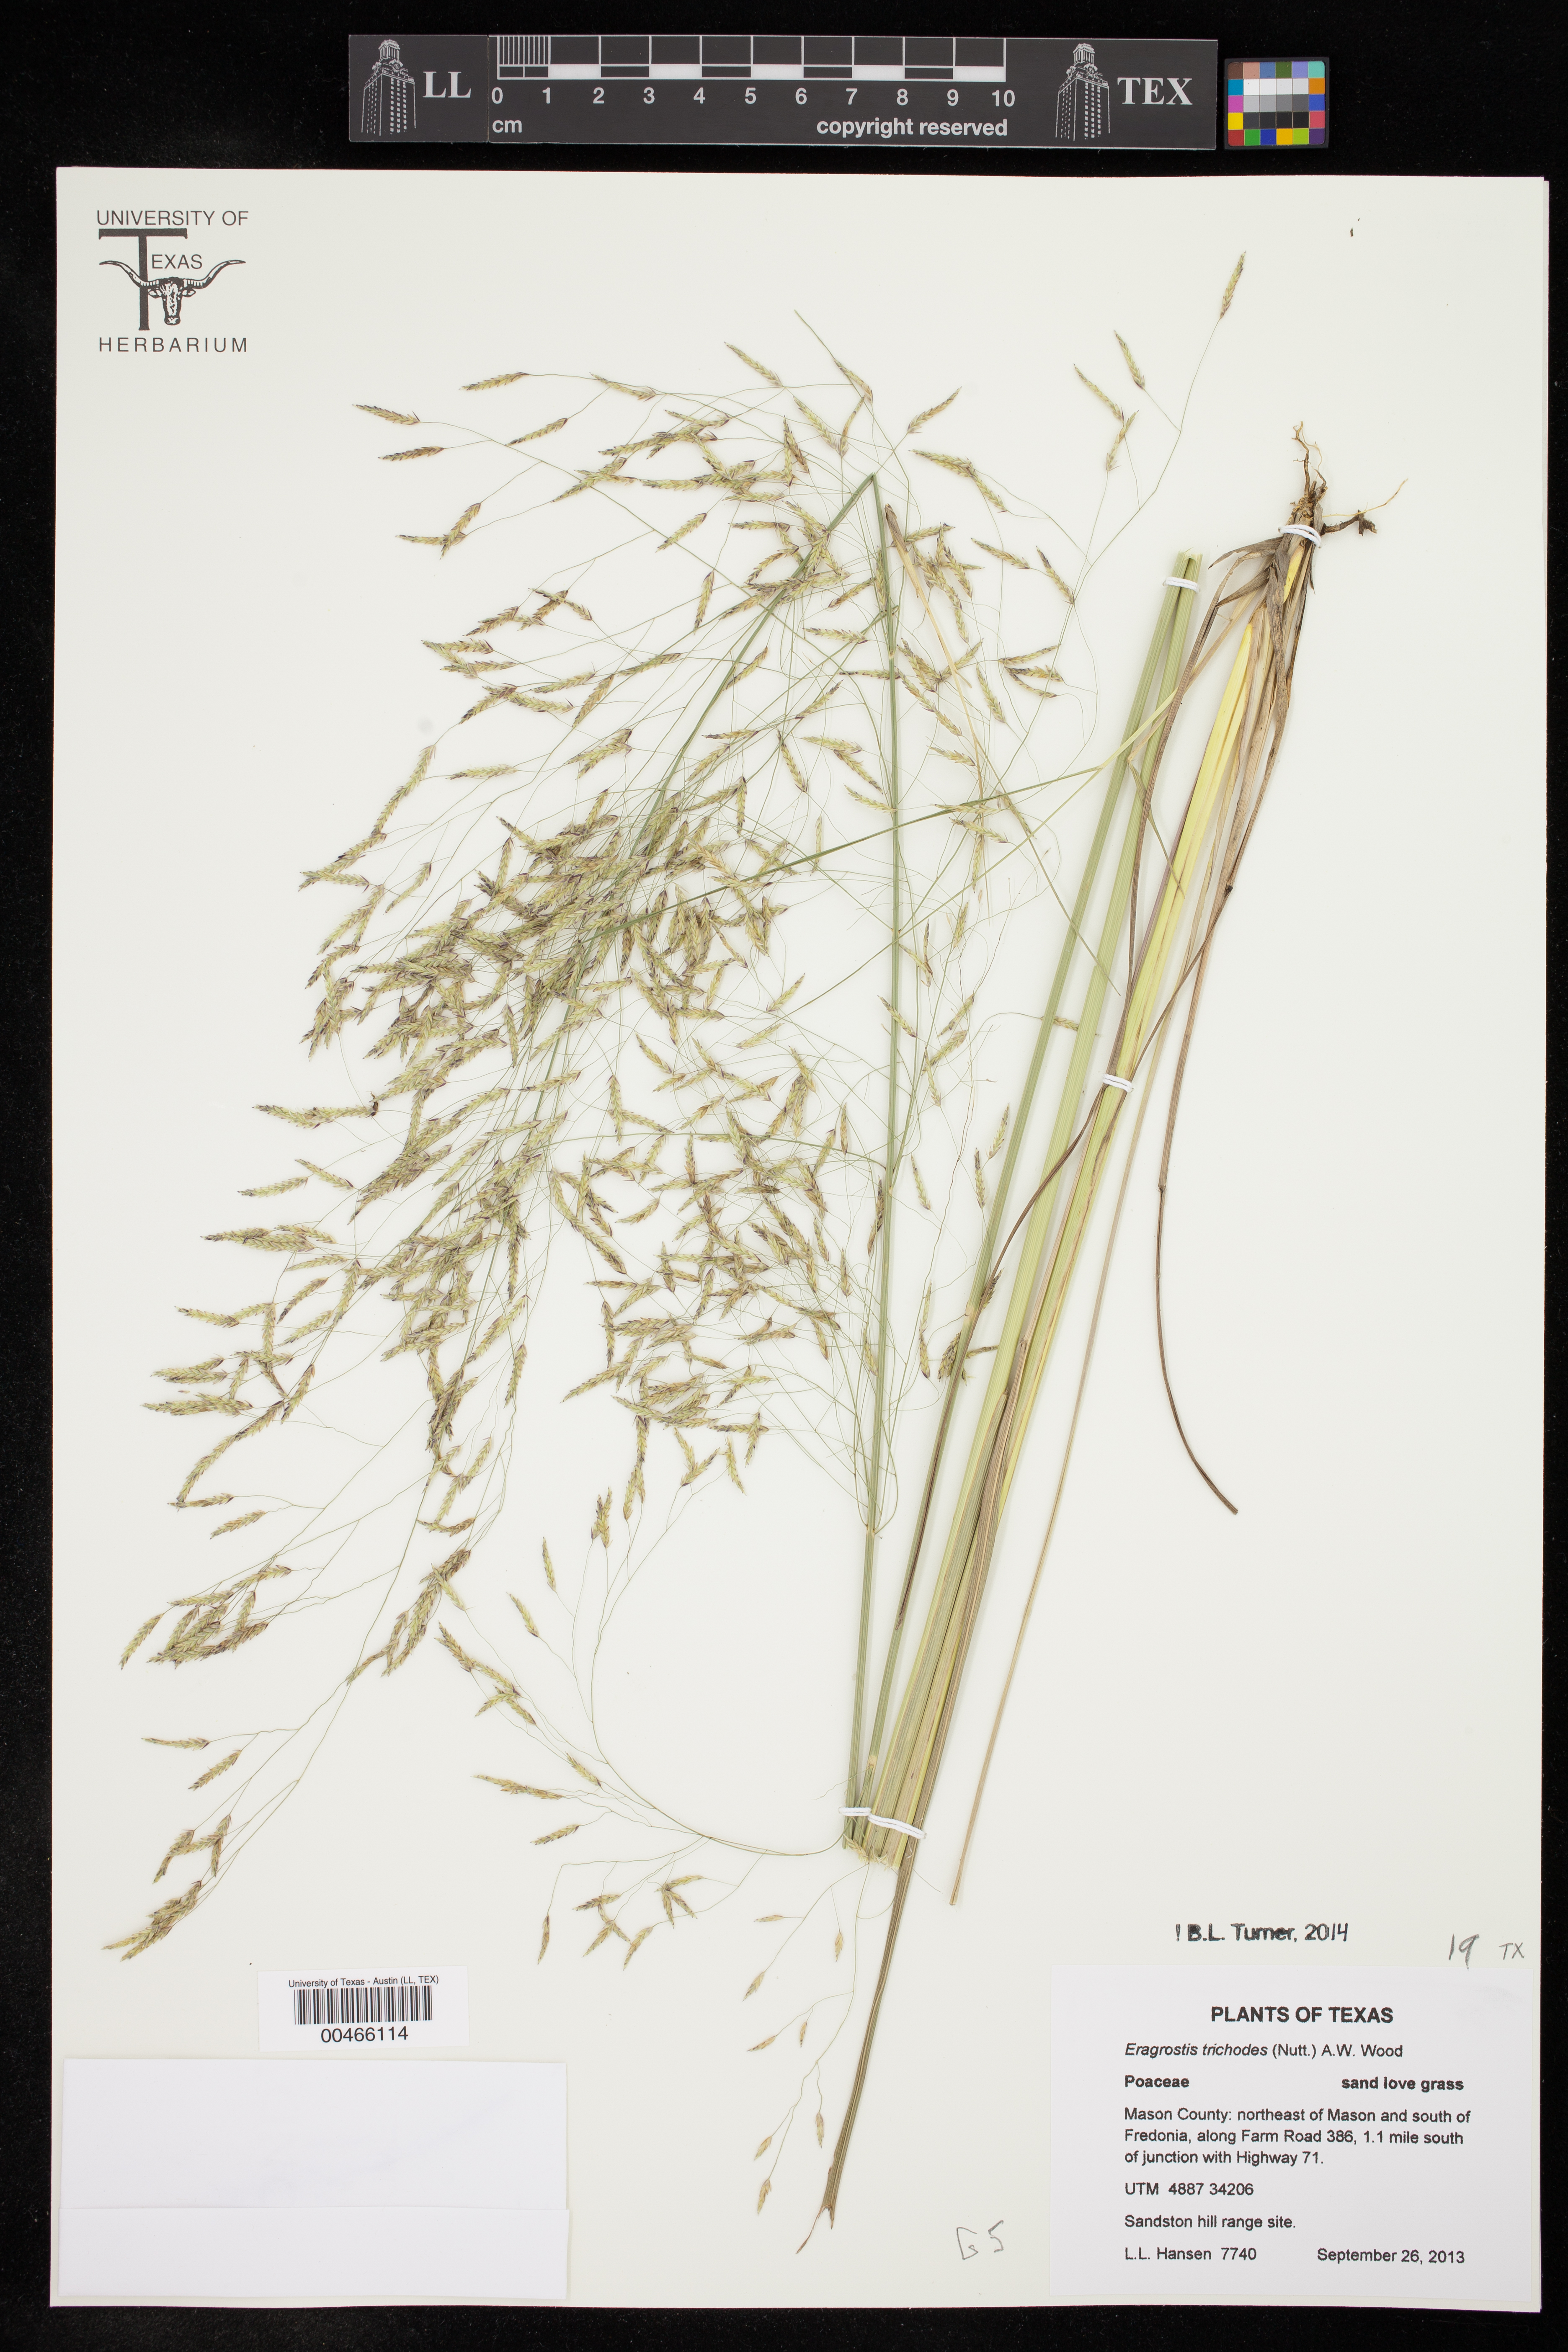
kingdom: Plantae
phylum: Tracheophyta
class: Liliopsida
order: Poales
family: Poaceae
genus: Eragrostis
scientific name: Eragrostis trichodes
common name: Sand love grass
